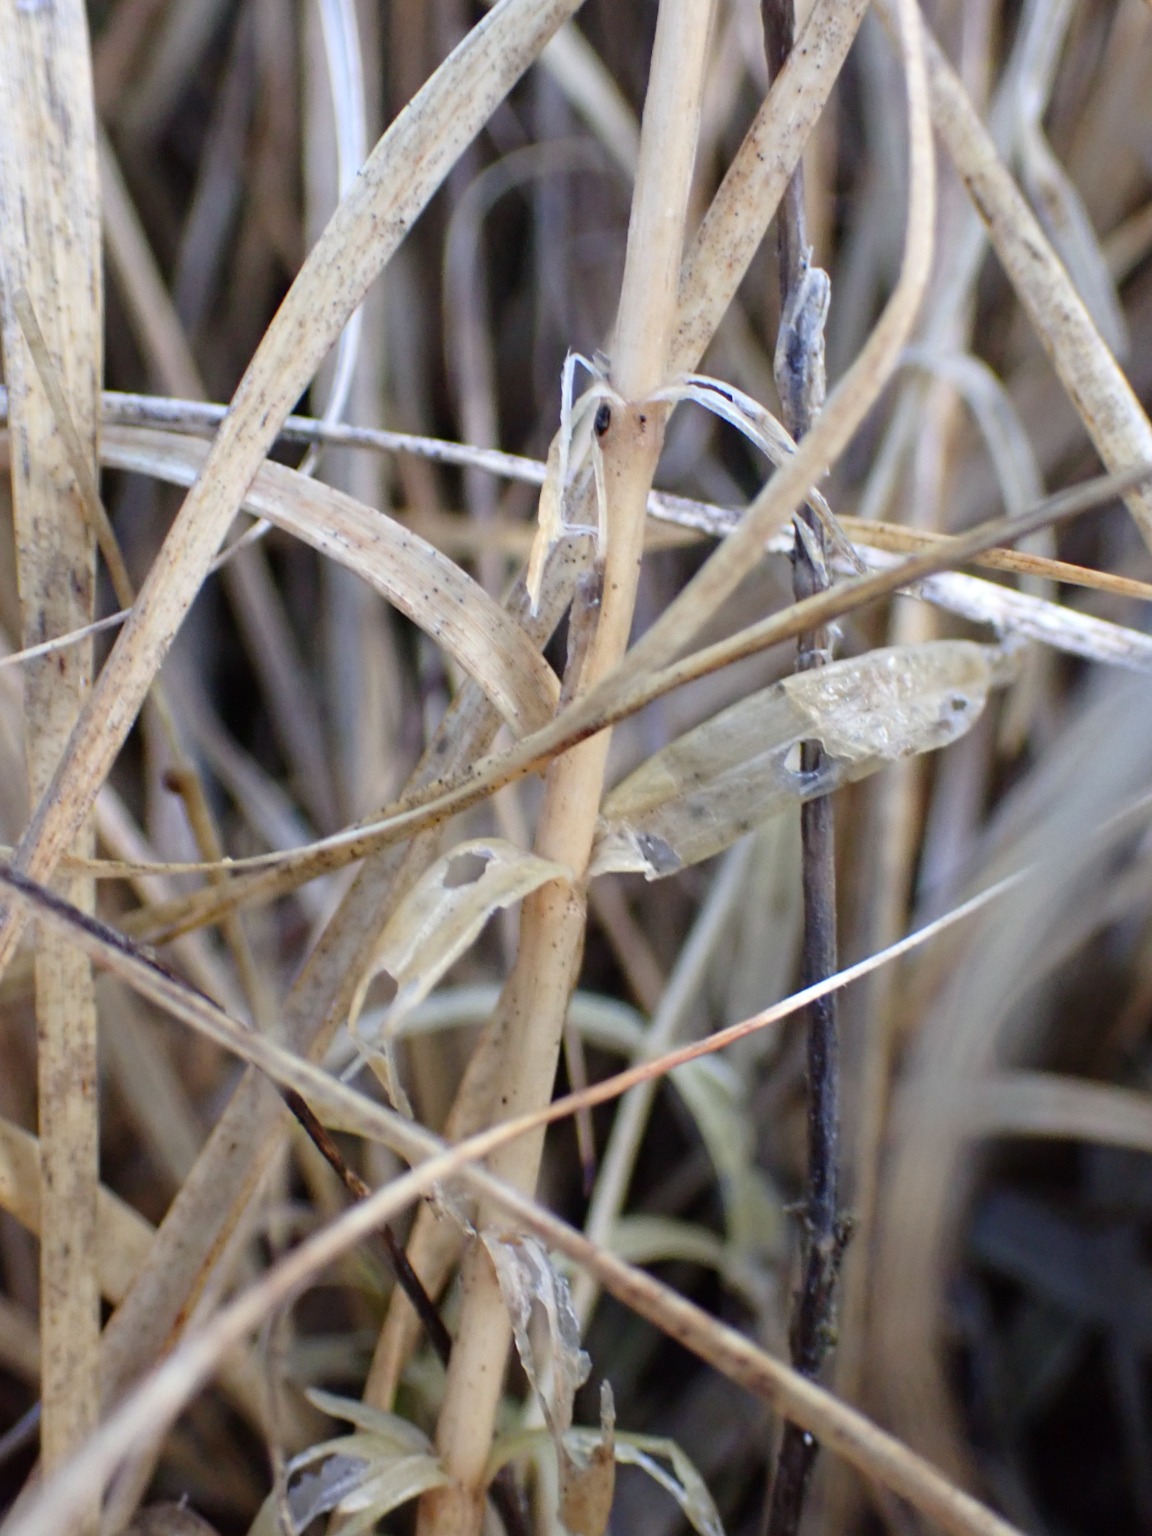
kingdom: Plantae
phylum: Tracheophyta
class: Magnoliopsida
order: Gentianales
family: Gentianaceae
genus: Gentiana
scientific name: Gentiana pneumonanthe
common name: Klokke-ensian
